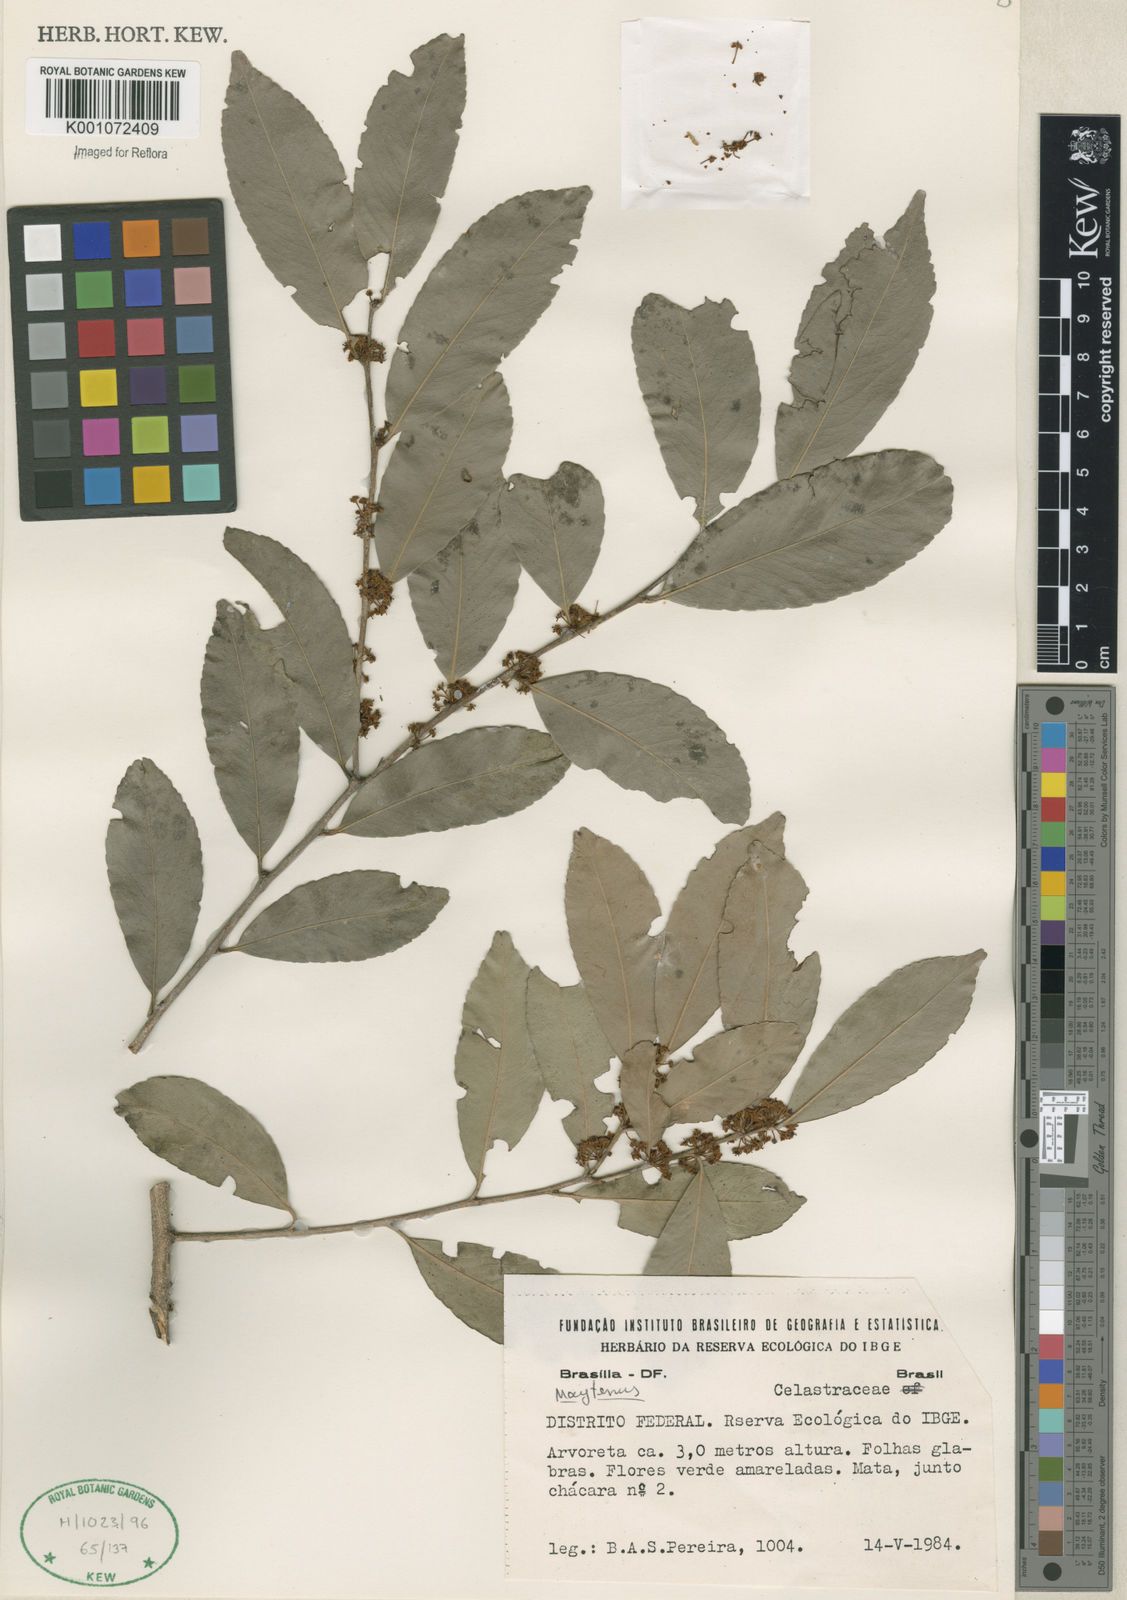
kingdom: Plantae
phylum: Tracheophyta
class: Magnoliopsida
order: Celastrales
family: Celastraceae
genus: Maytenus
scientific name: Maytenus
